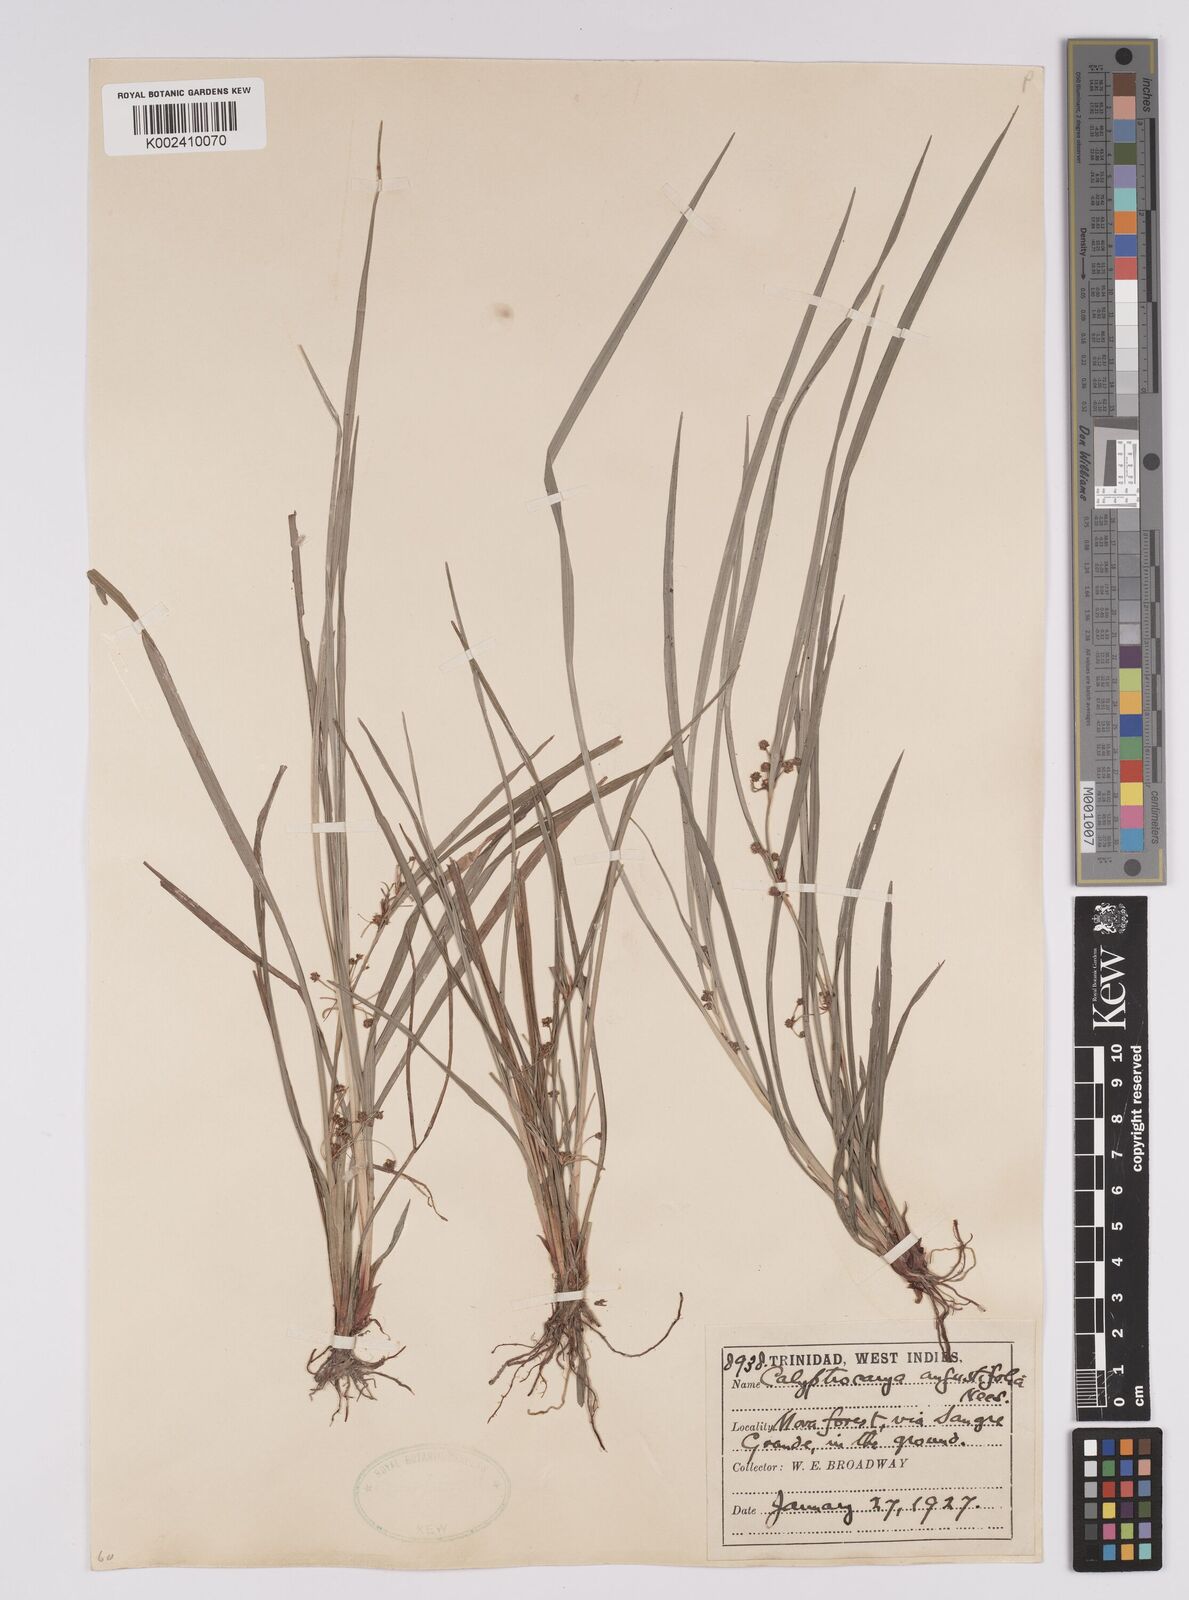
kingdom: Plantae
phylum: Tracheophyta
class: Liliopsida
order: Poales
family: Cyperaceae
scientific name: Cyperaceae
